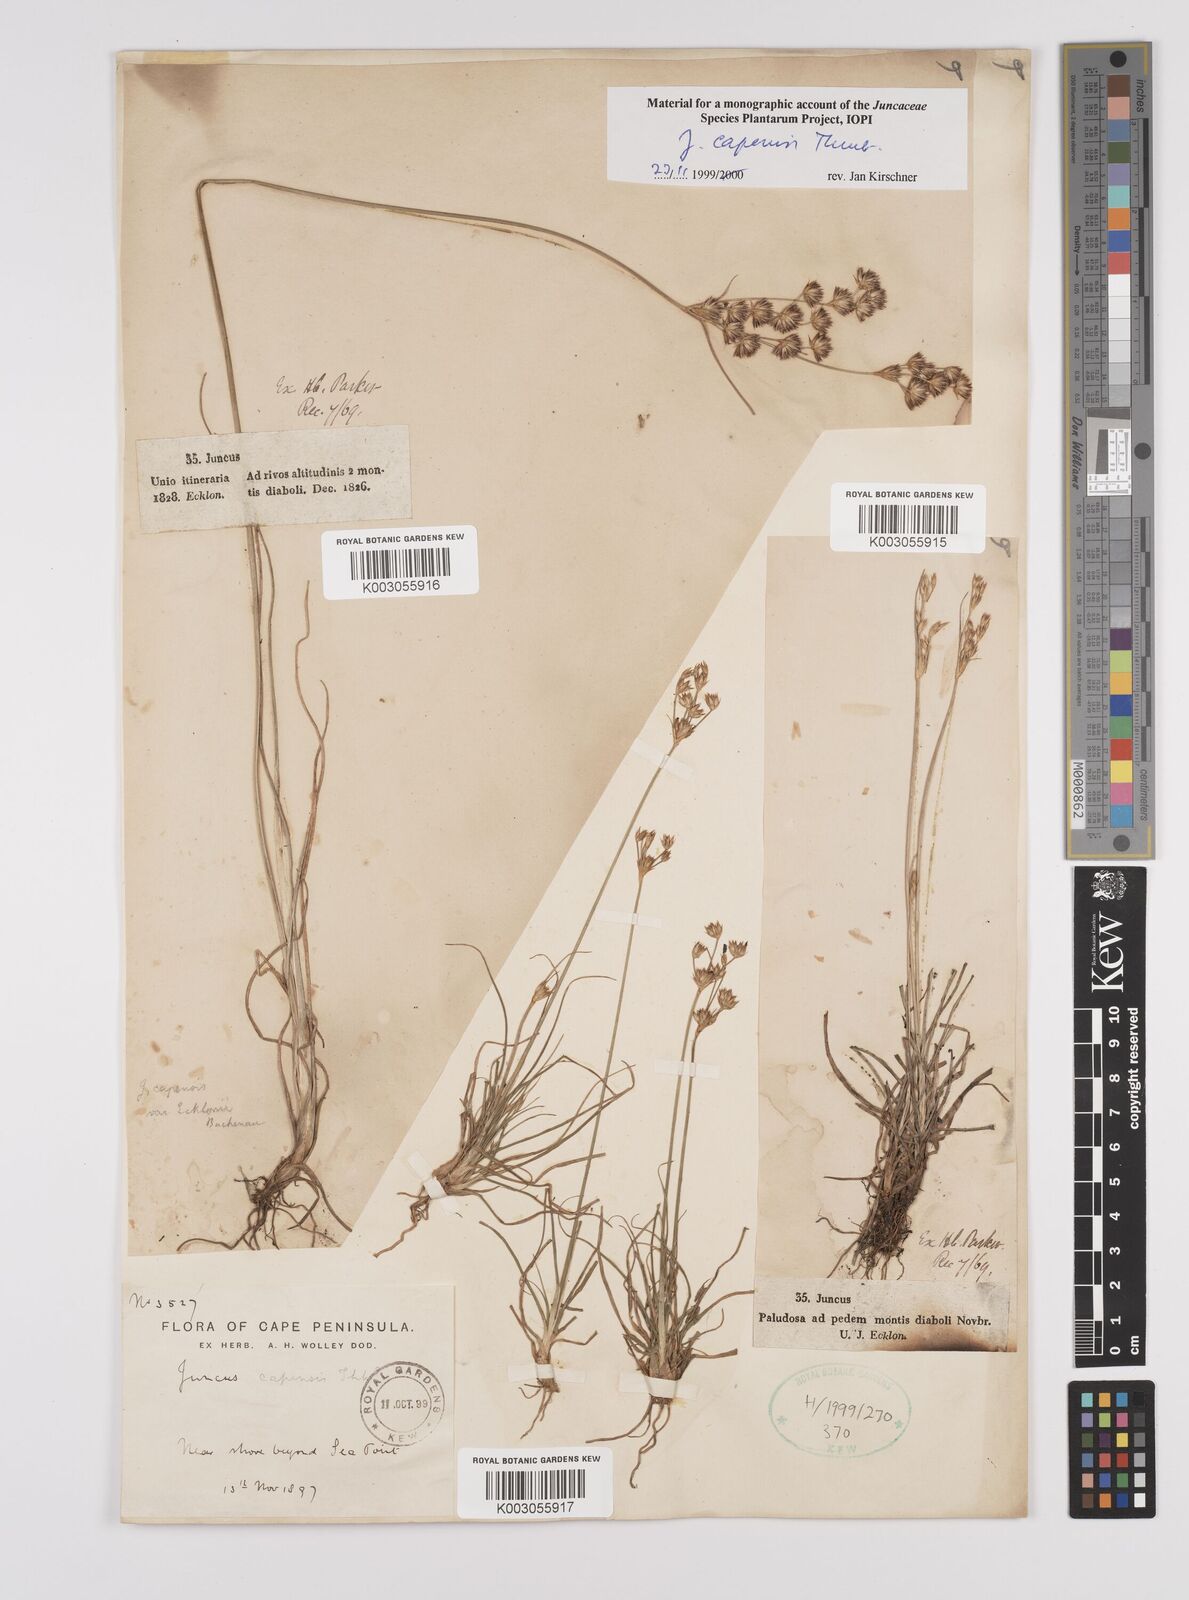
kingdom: Plantae
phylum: Tracheophyta
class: Liliopsida
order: Poales
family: Juncaceae
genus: Juncus
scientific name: Juncus capensis
